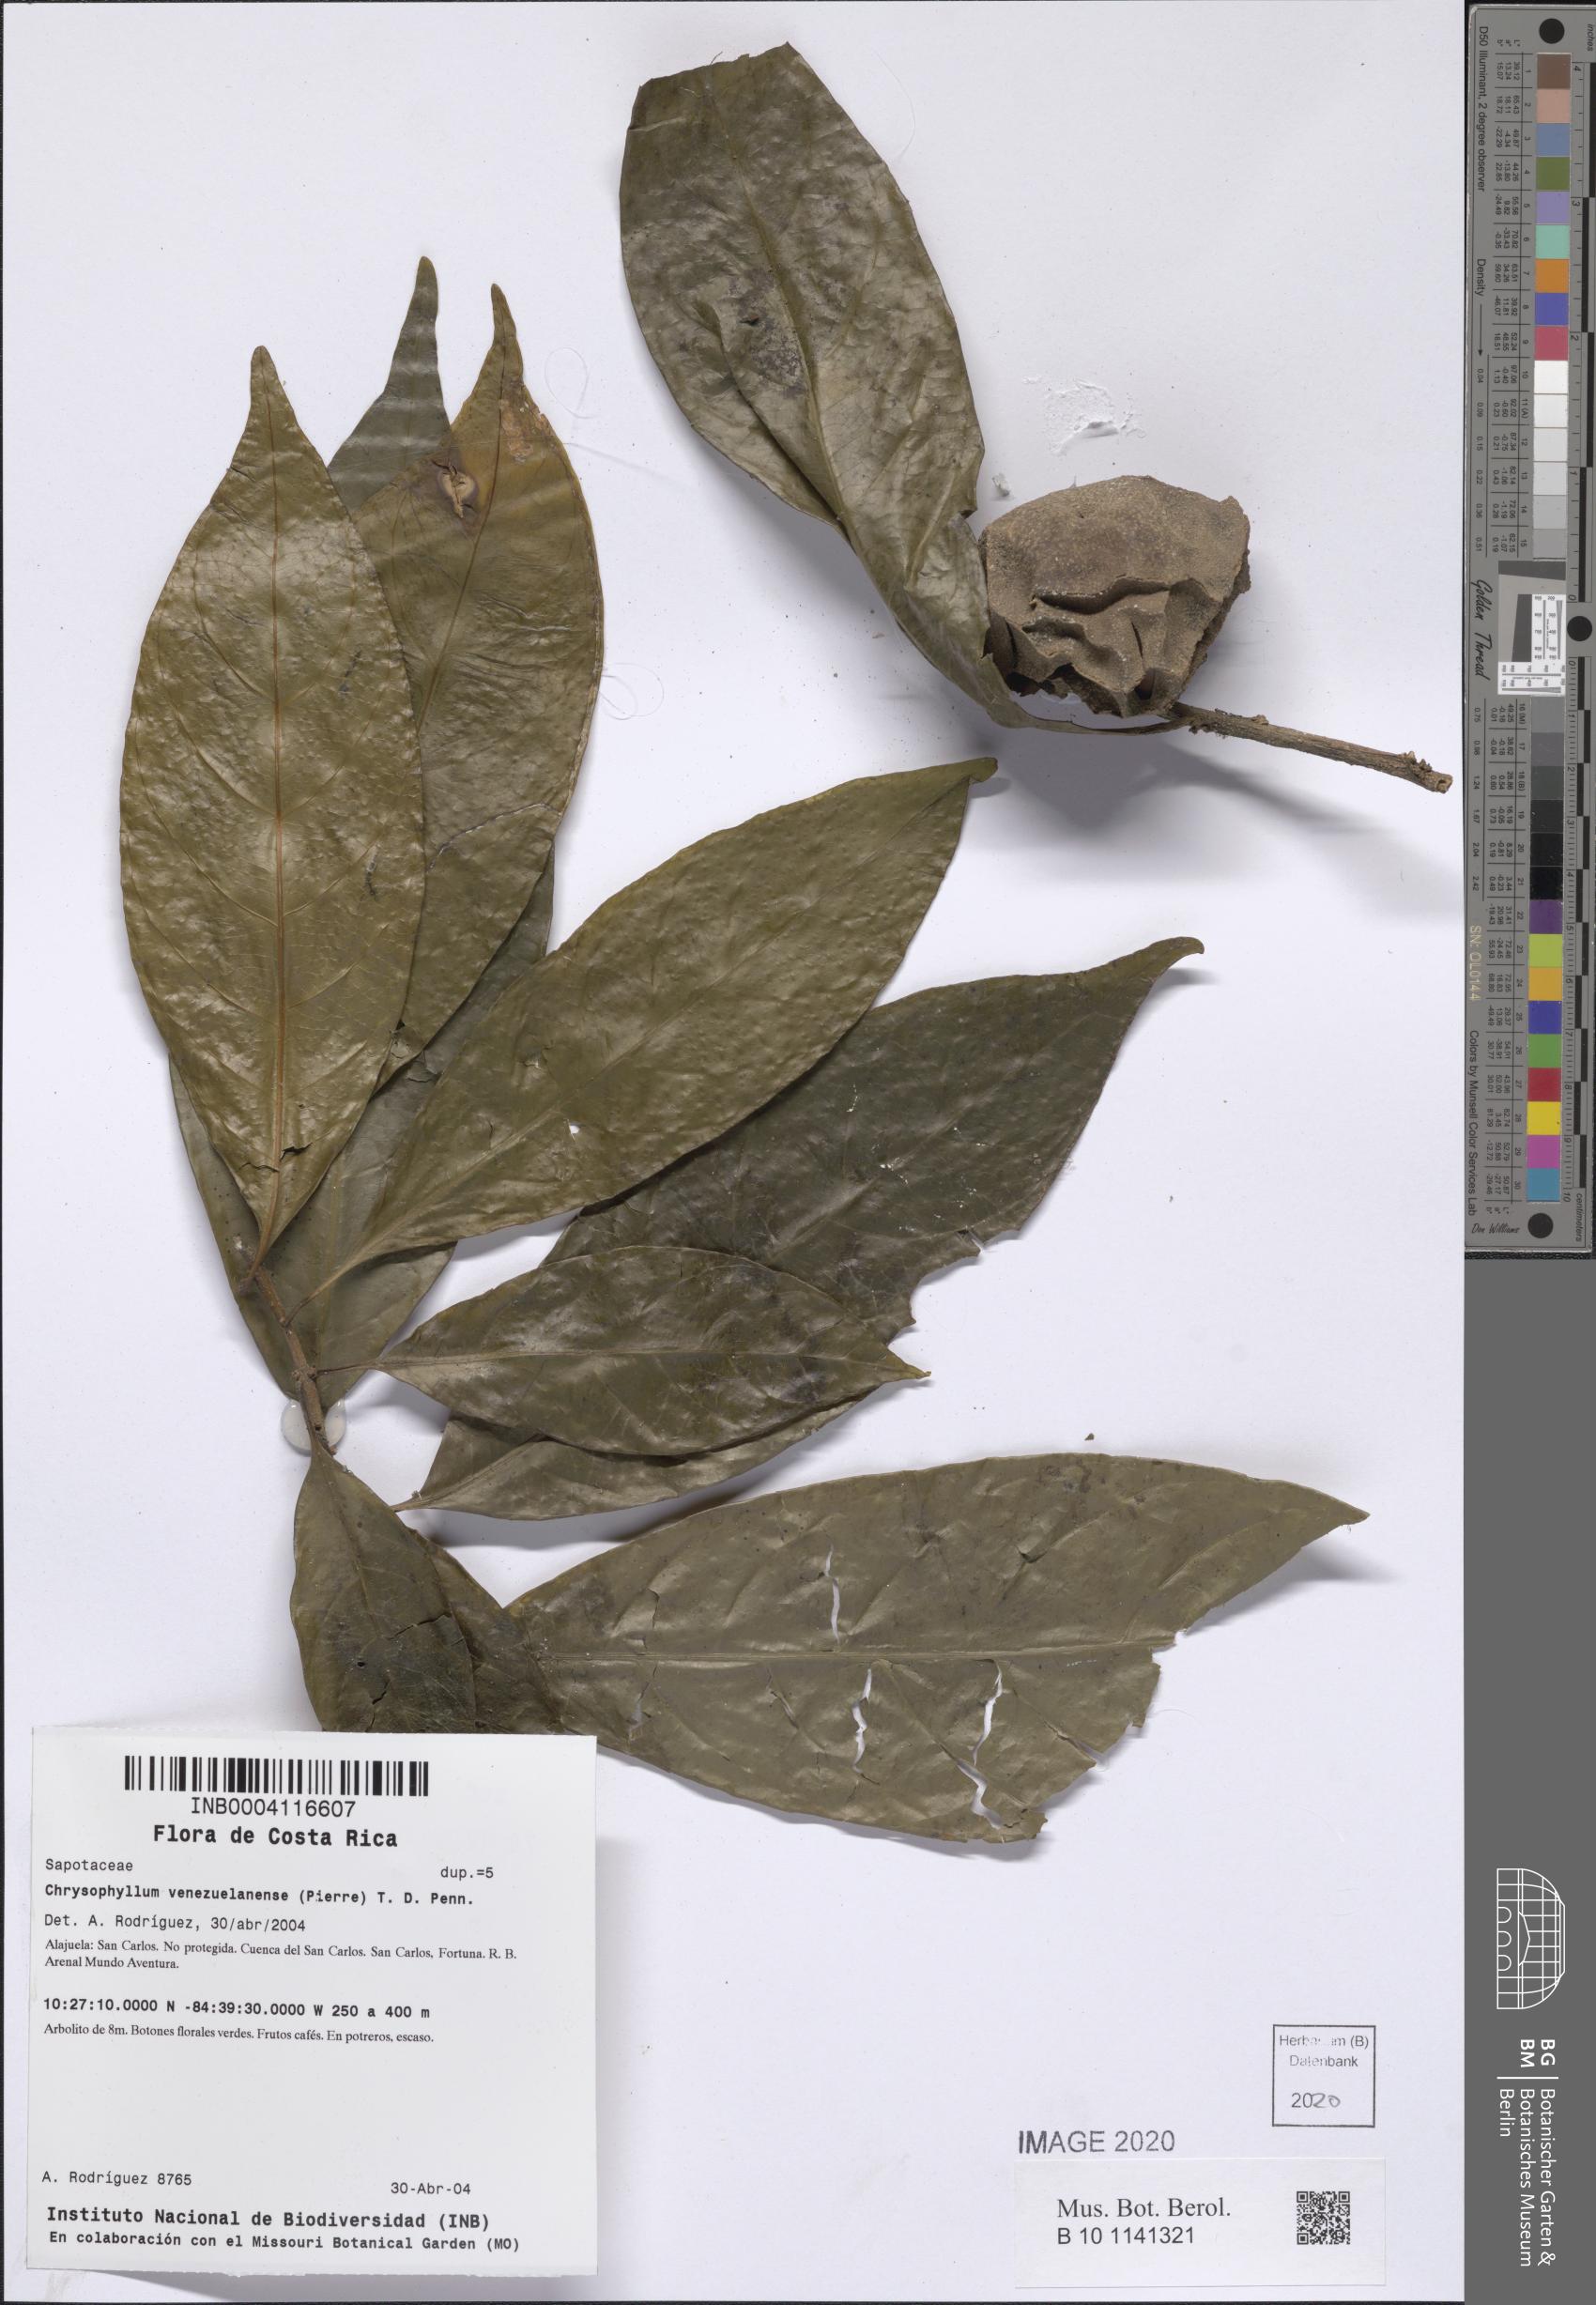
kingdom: Plantae
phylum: Tracheophyta
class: Magnoliopsida
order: Ericales
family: Sapotaceae
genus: Chrysophyllum
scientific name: Chrysophyllum venezuelanense
